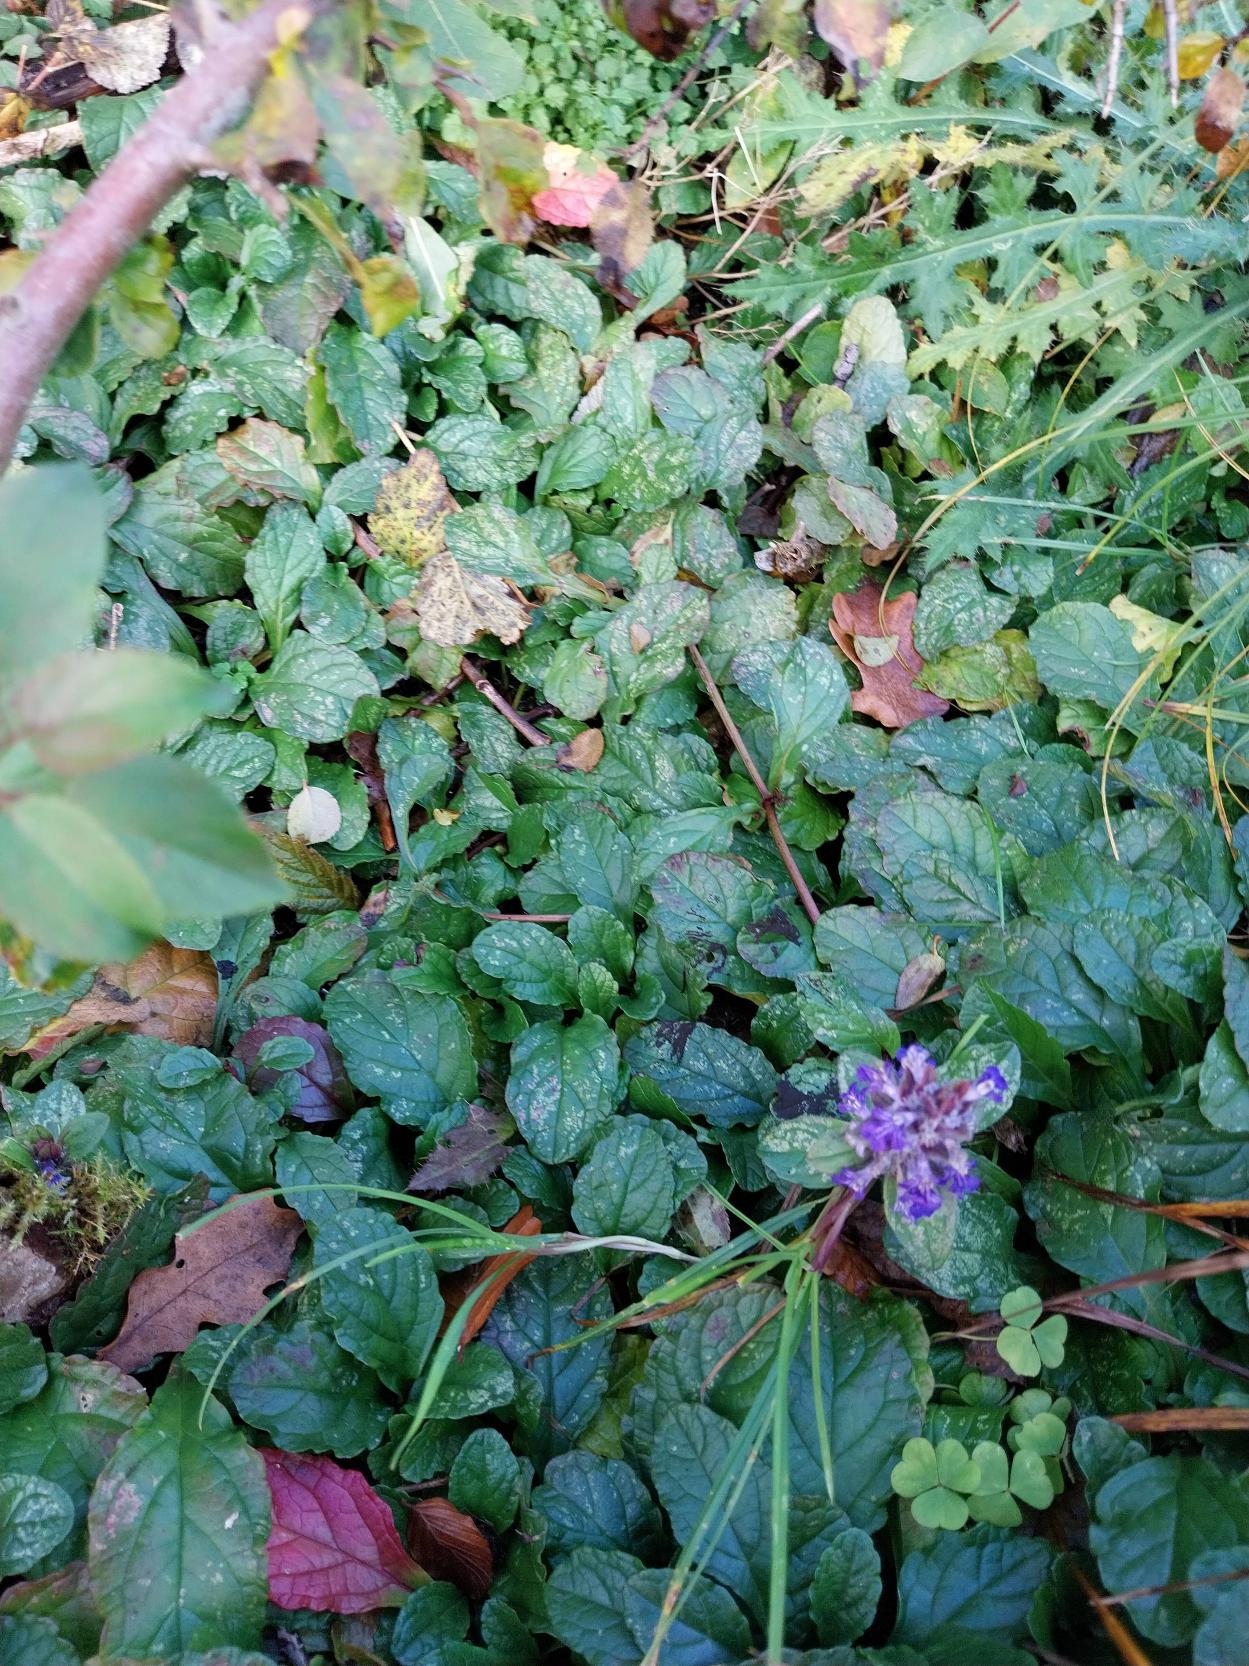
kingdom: Plantae
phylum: Tracheophyta
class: Magnoliopsida
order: Lamiales
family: Lamiaceae
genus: Ajuga
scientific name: Ajuga reptans
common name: Krybende læbeløs
